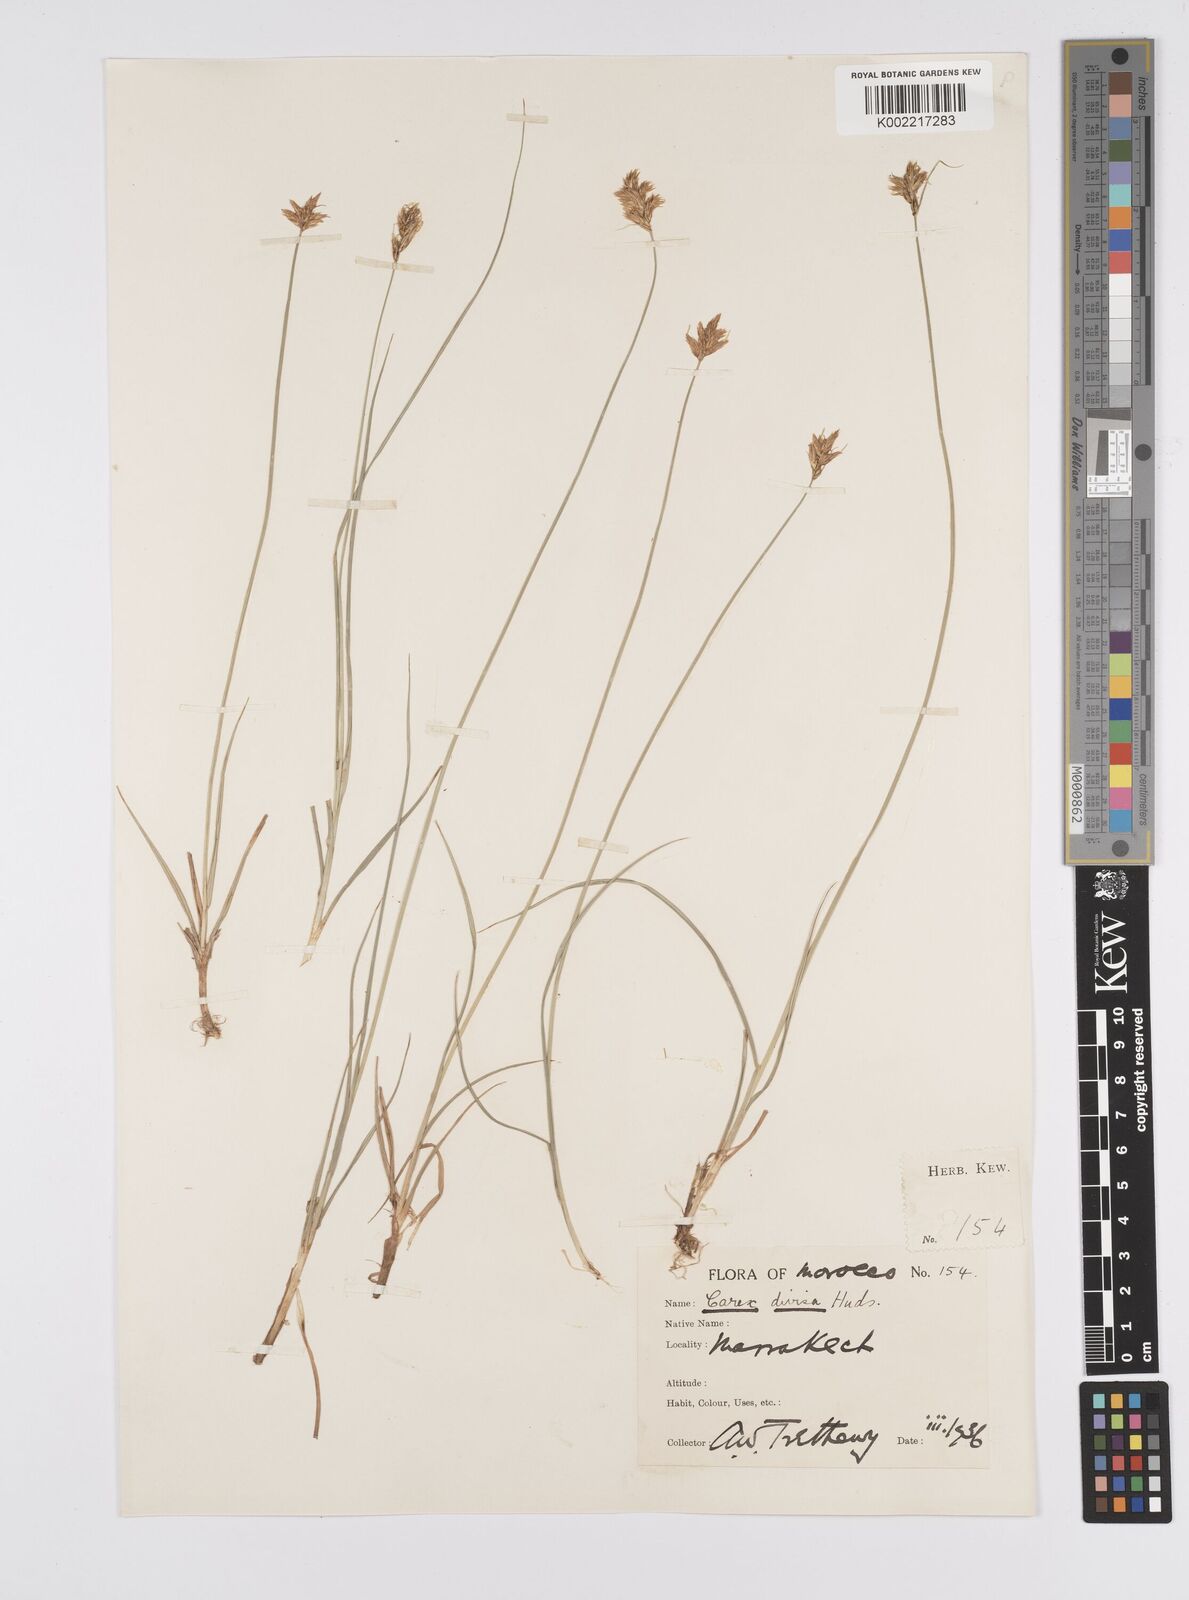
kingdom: Plantae
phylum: Tracheophyta
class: Liliopsida
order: Poales
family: Cyperaceae
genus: Carex
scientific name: Carex divisa
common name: Divided sedge
